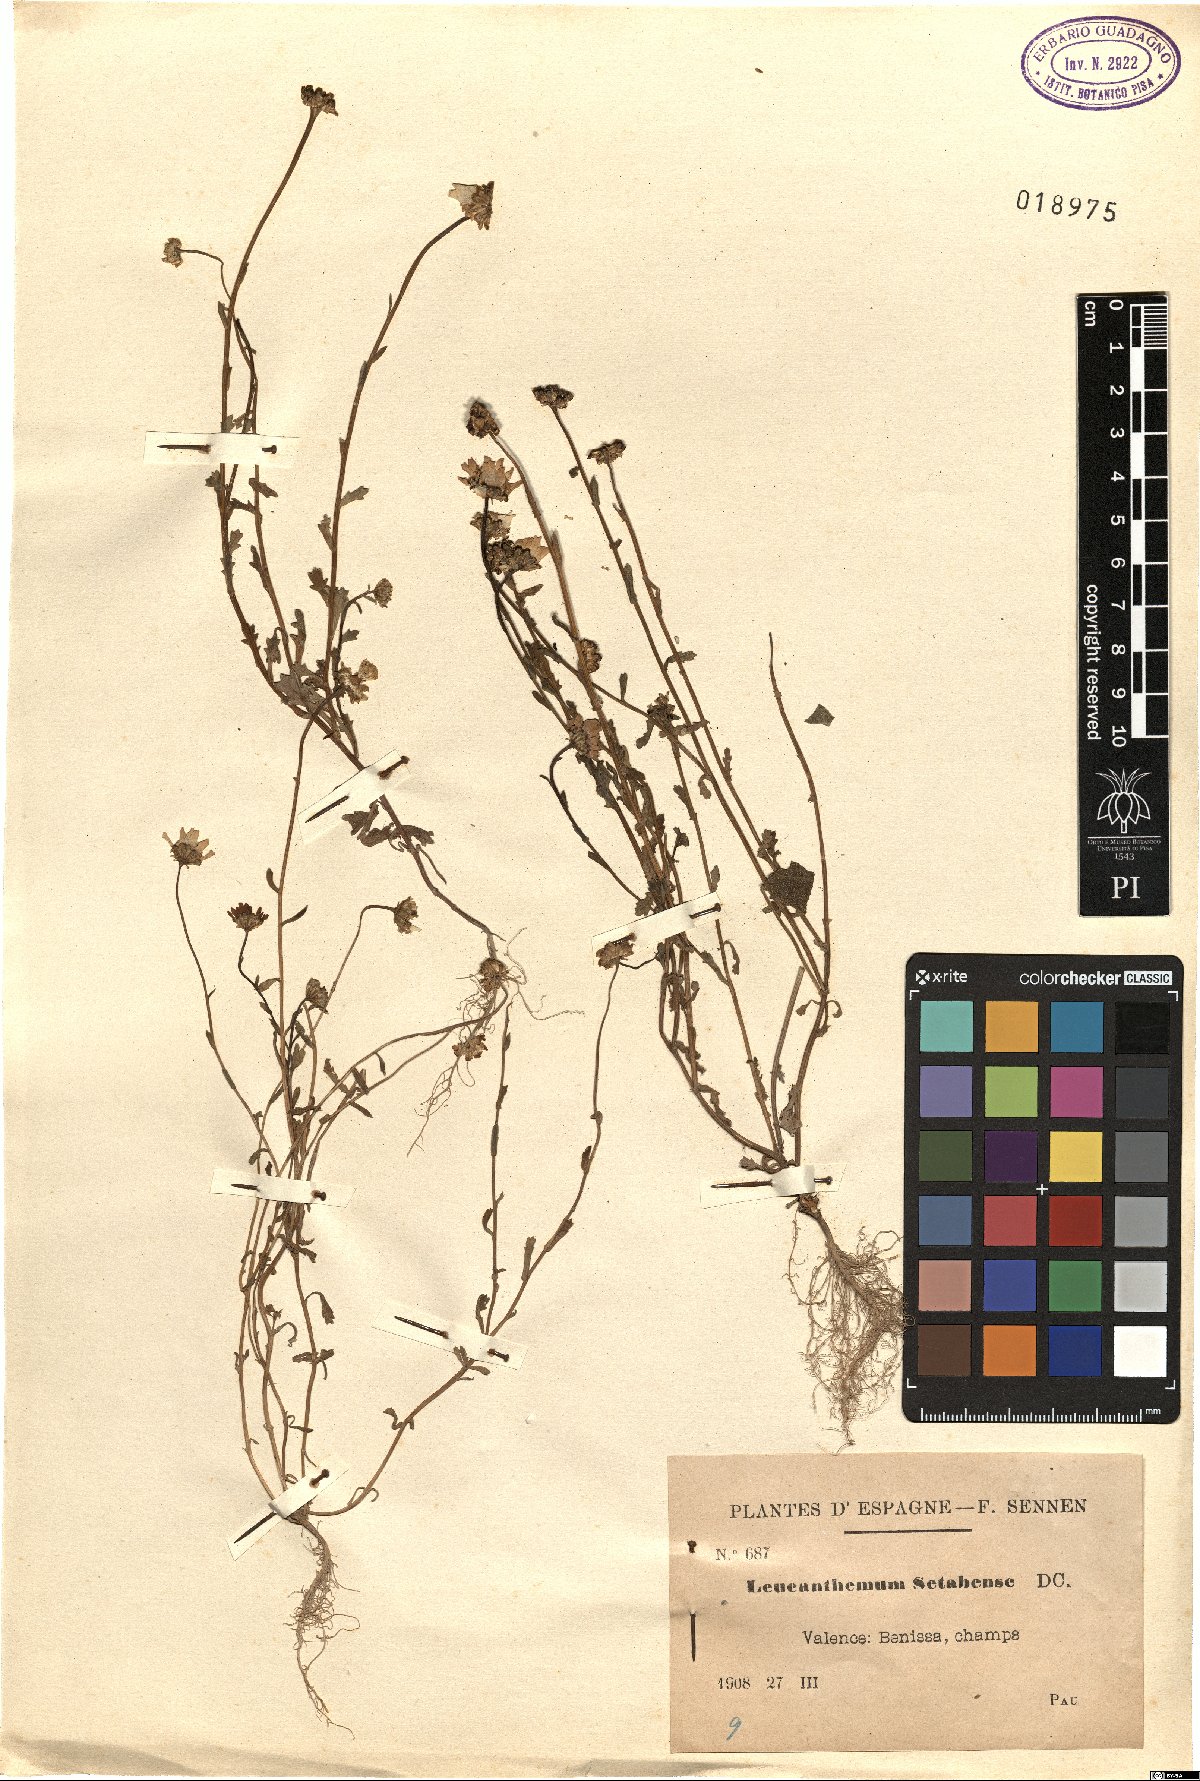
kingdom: Plantae
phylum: Tracheophyta
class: Magnoliopsida
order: Asterales
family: Asteraceae
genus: Mauranthemum
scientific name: Mauranthemum paludosum
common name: Sunflower
